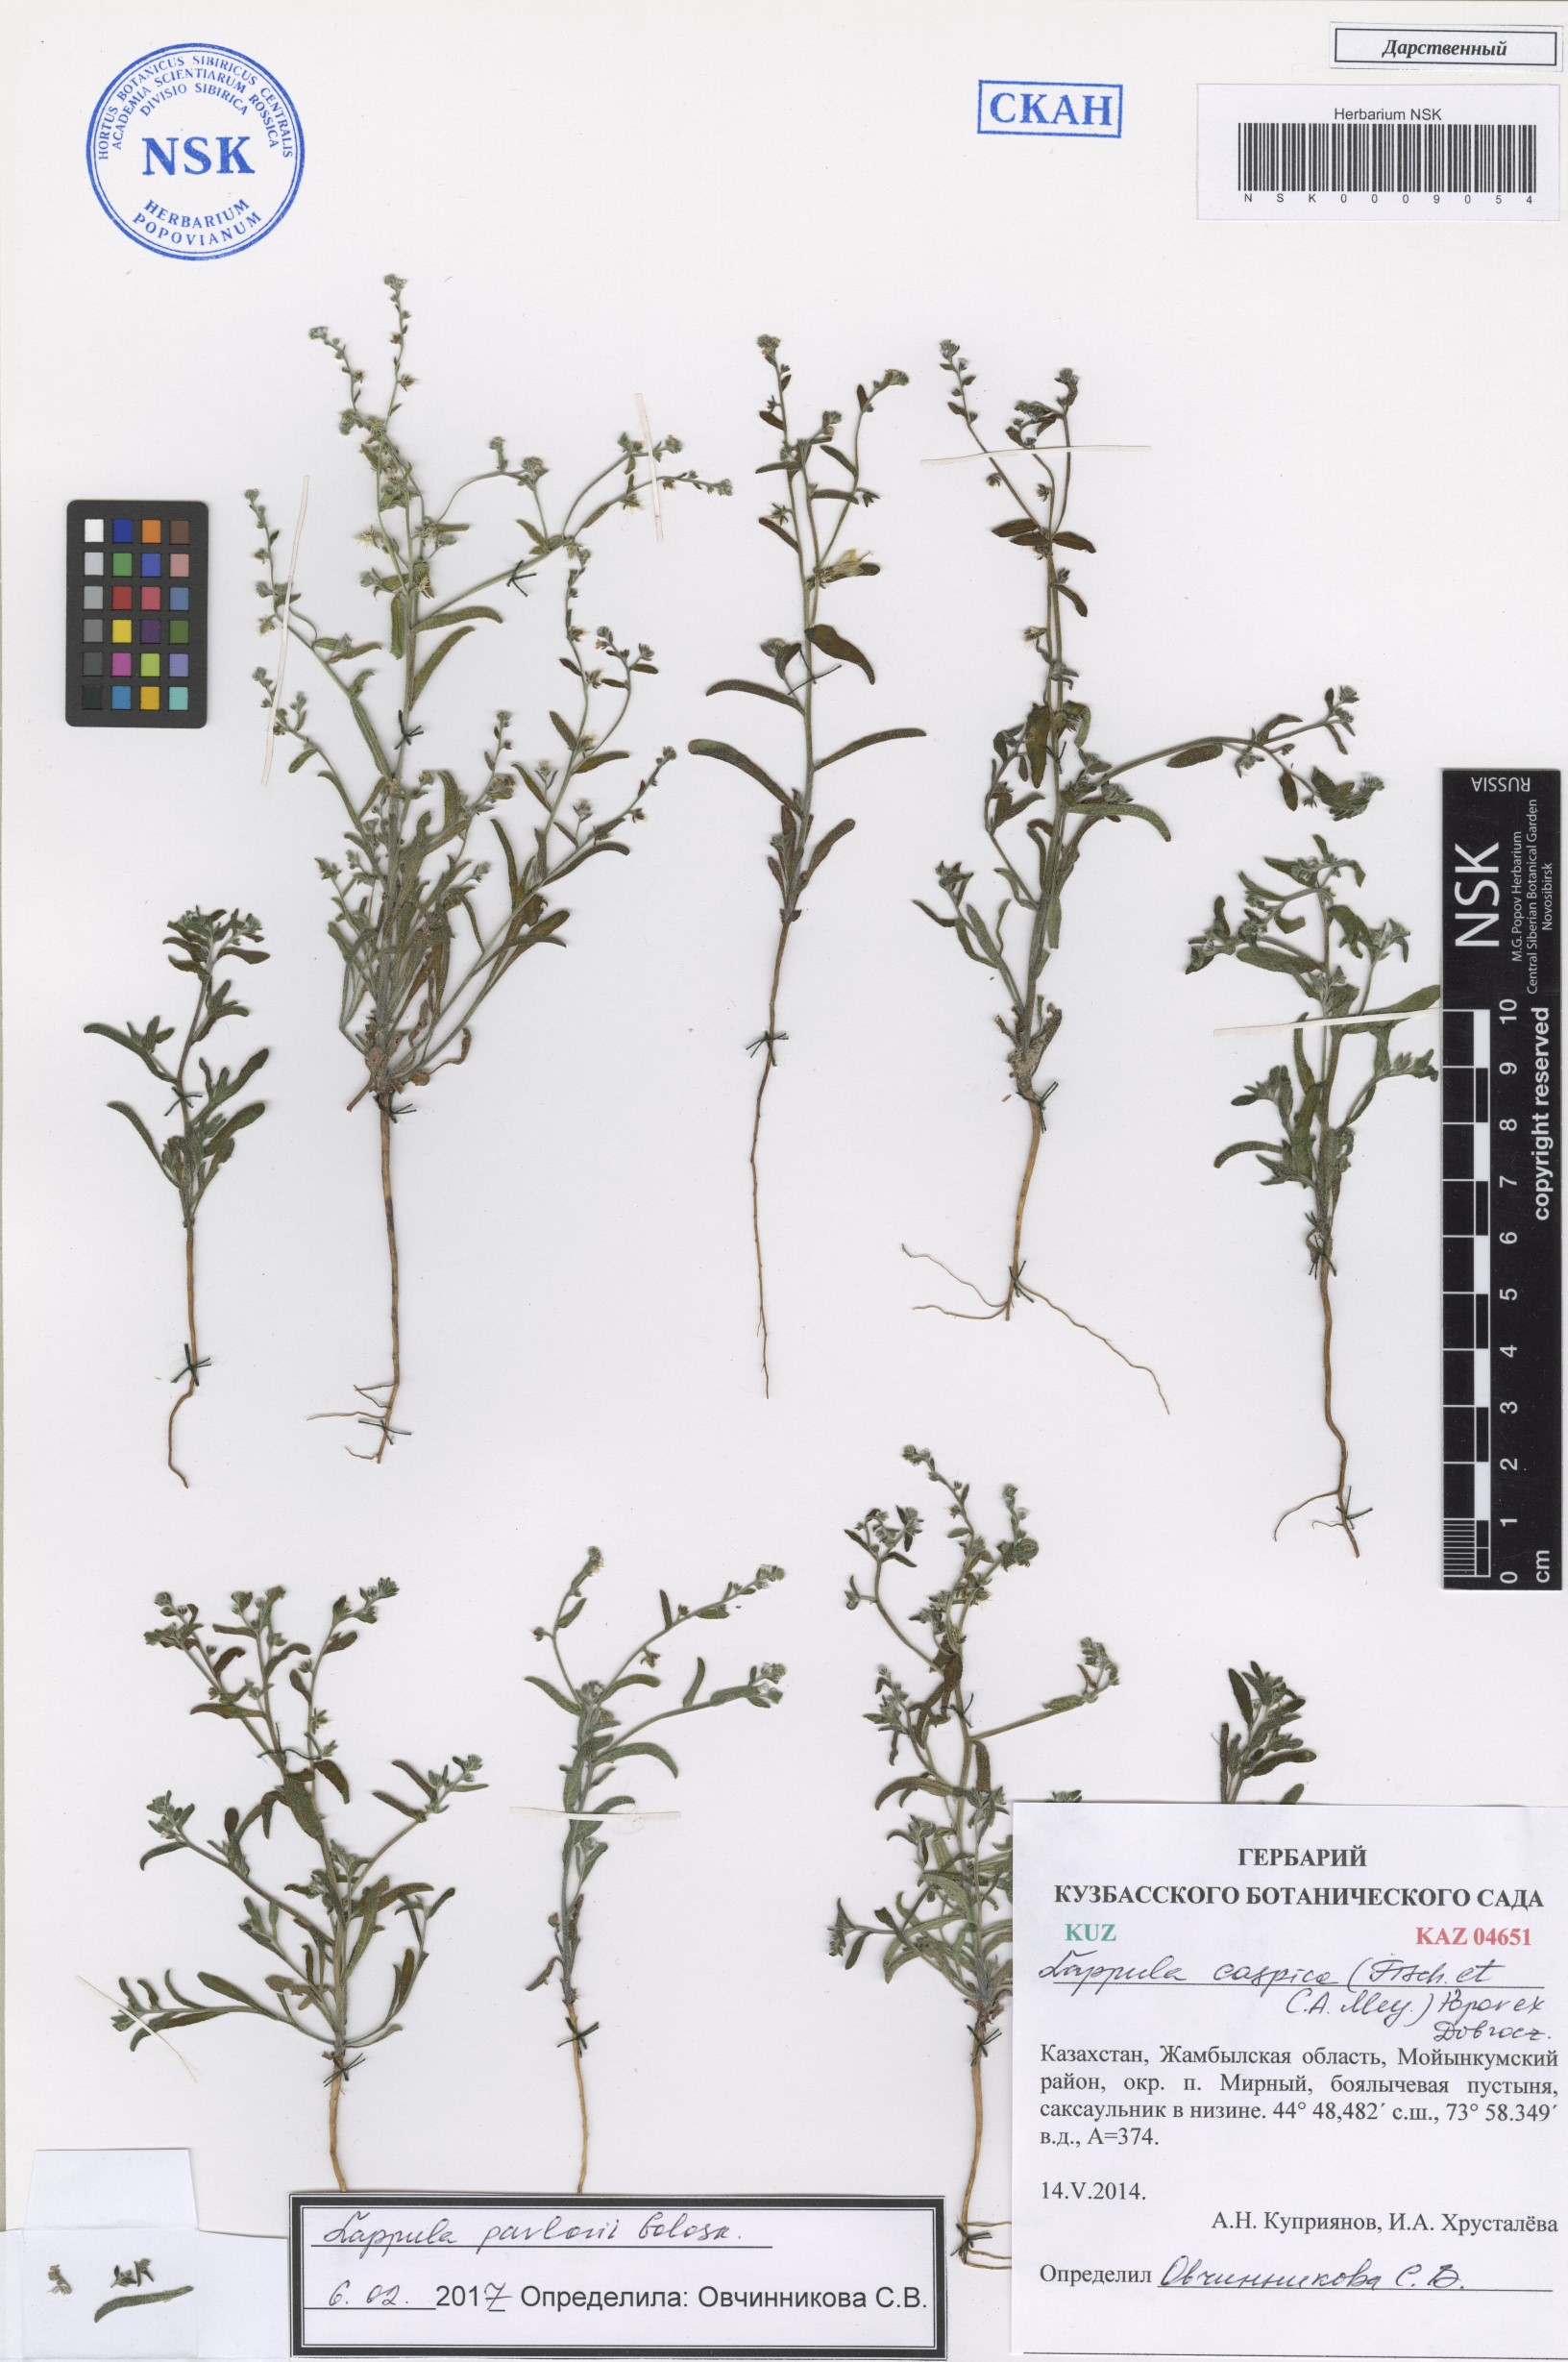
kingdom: Plantae
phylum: Tracheophyta
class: Magnoliopsida
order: Boraginales
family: Boraginaceae
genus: Lappula
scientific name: Lappula pavlovii
